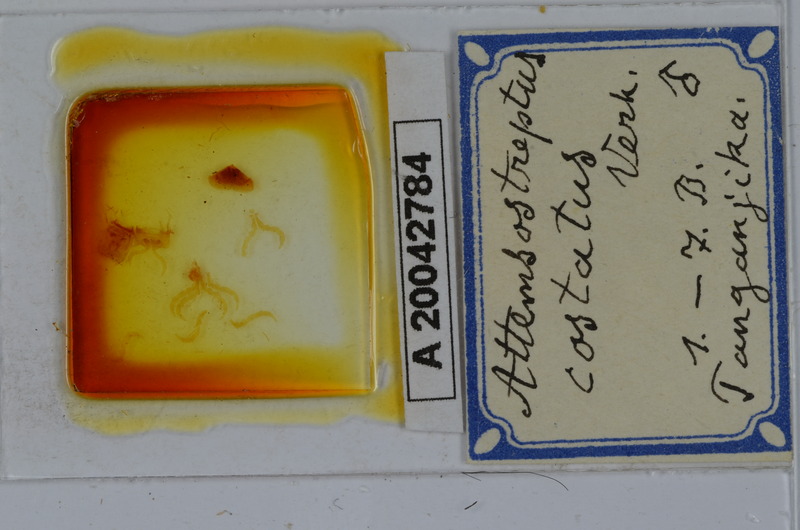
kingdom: Animalia
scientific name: Animalia
